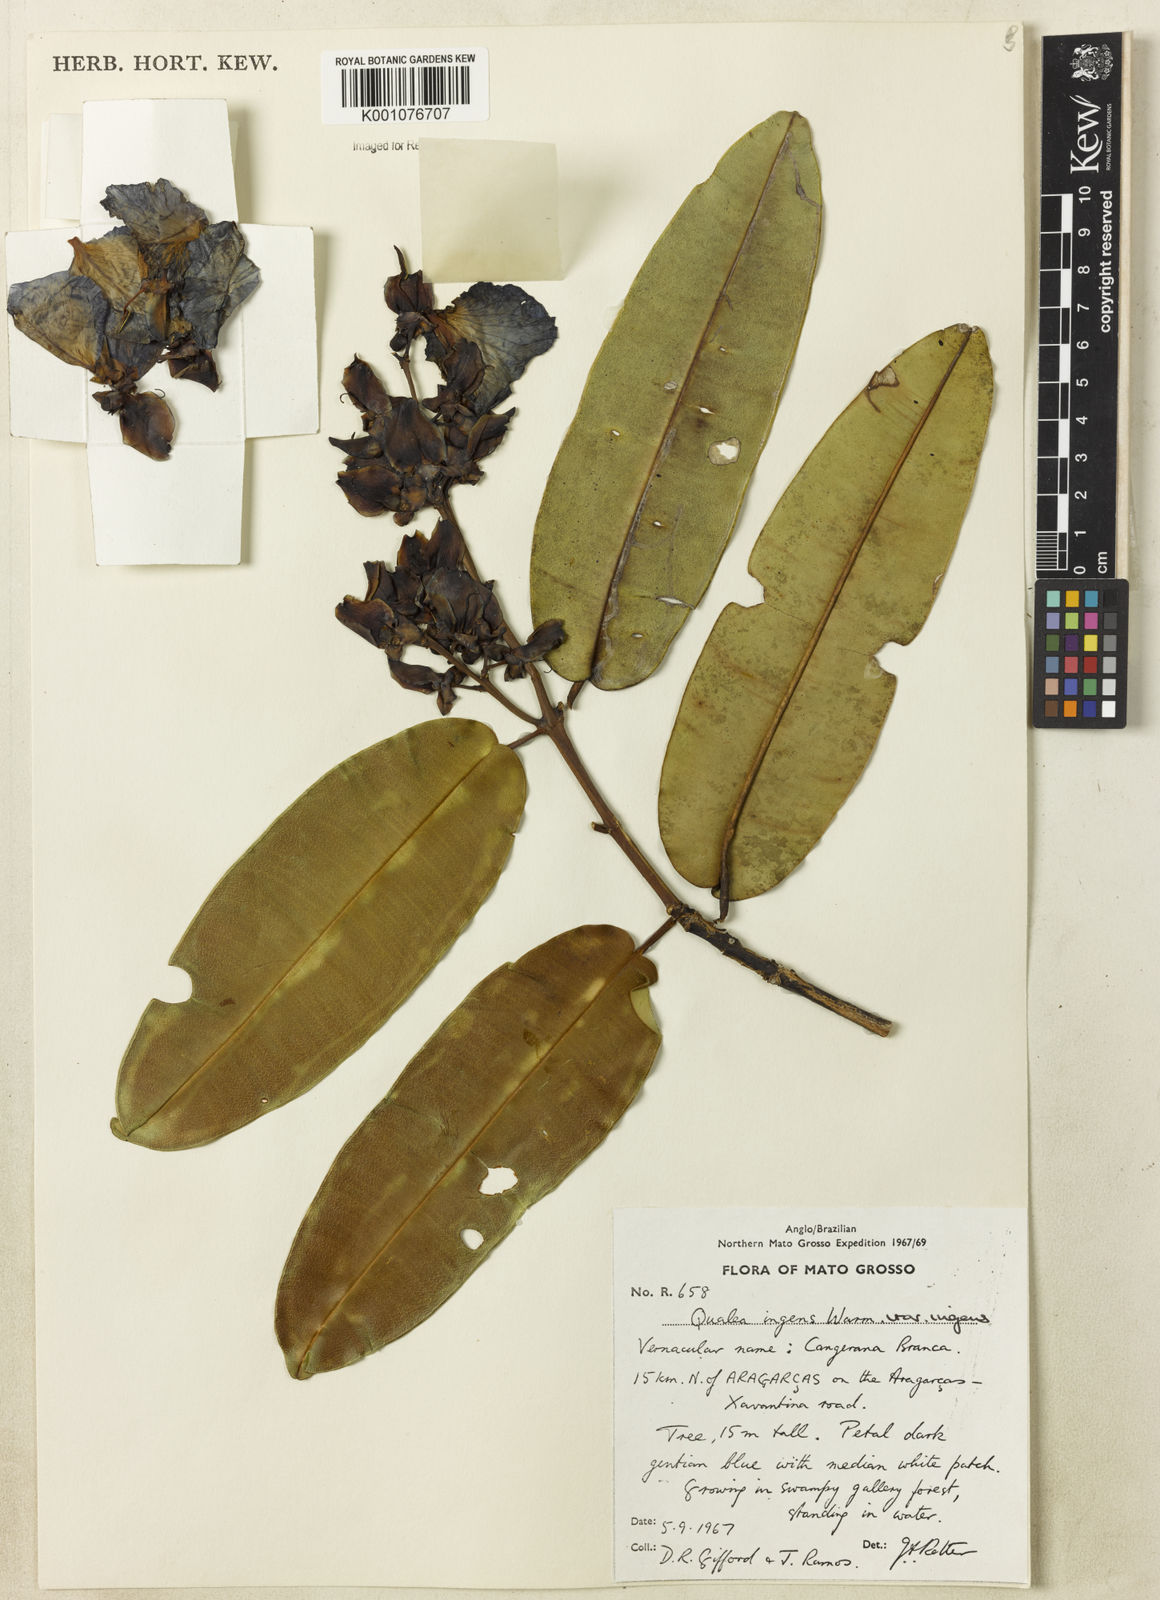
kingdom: Plantae
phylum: Tracheophyta
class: Magnoliopsida
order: Myrtales
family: Vochysiaceae
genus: Qualea
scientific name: Qualea ingens
